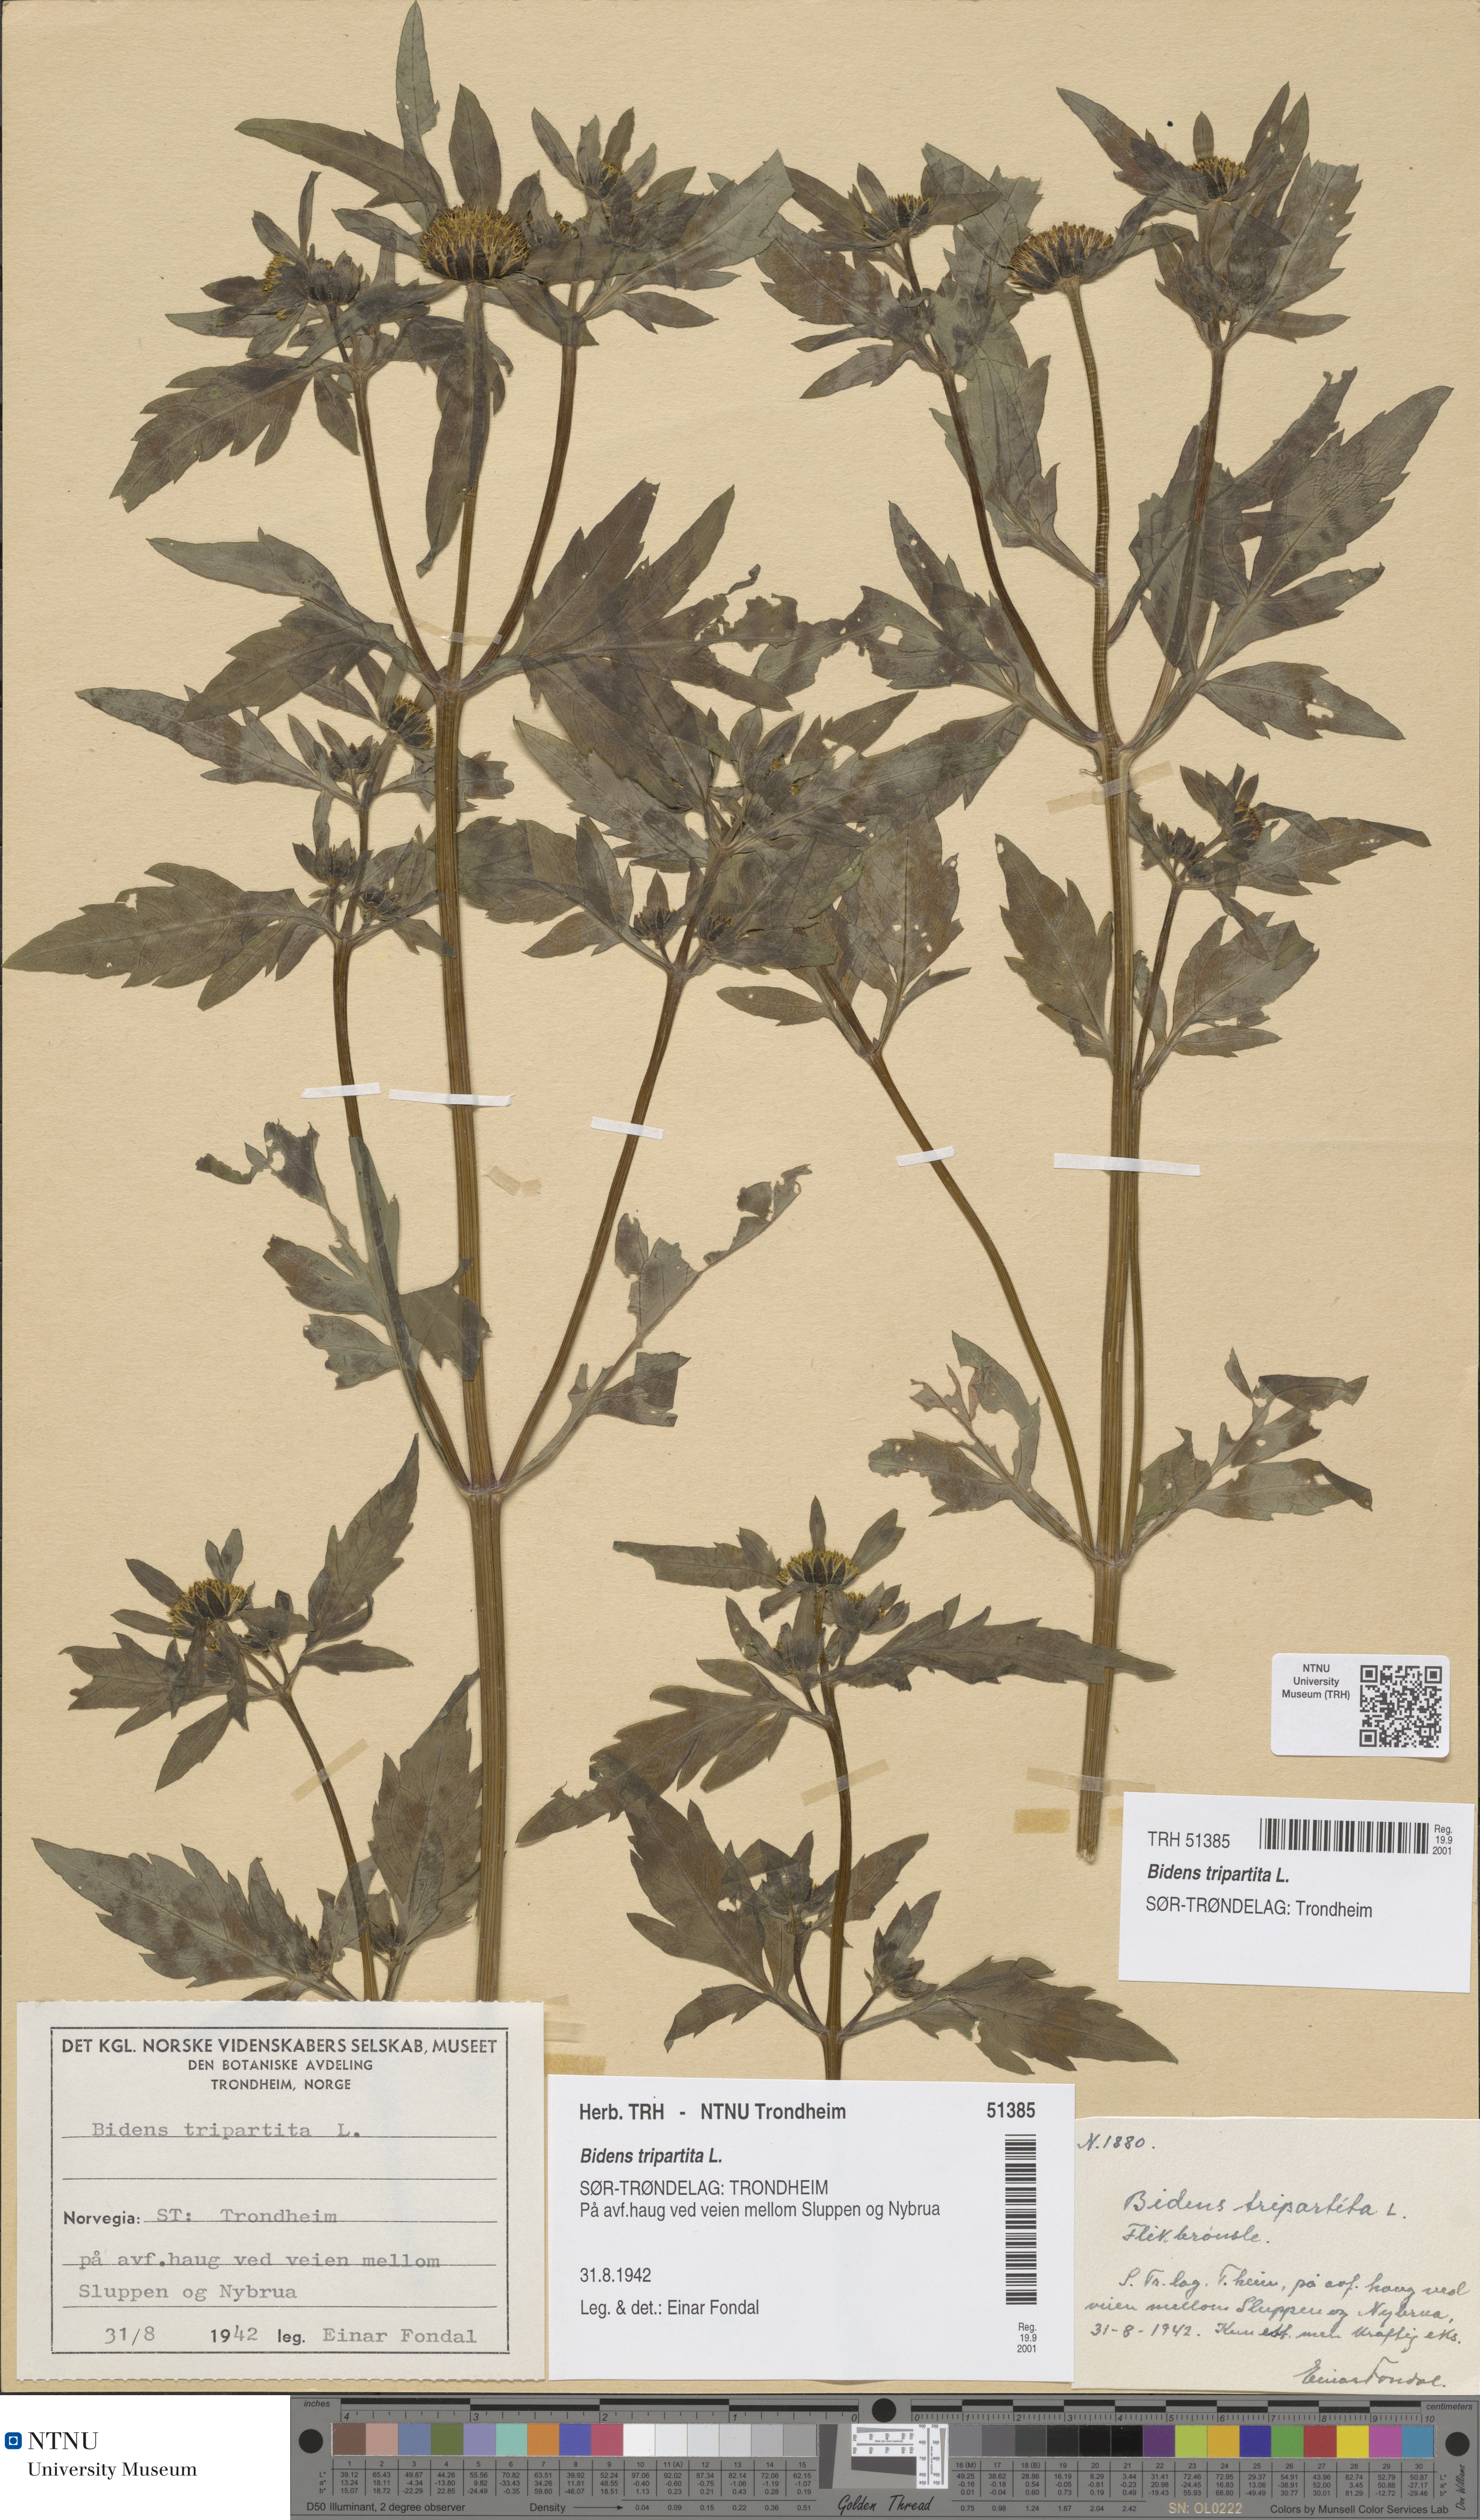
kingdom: Plantae
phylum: Tracheophyta
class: Magnoliopsida
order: Asterales
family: Asteraceae
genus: Bidens
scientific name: Bidens tripartita
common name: Trifid bur-marigold
